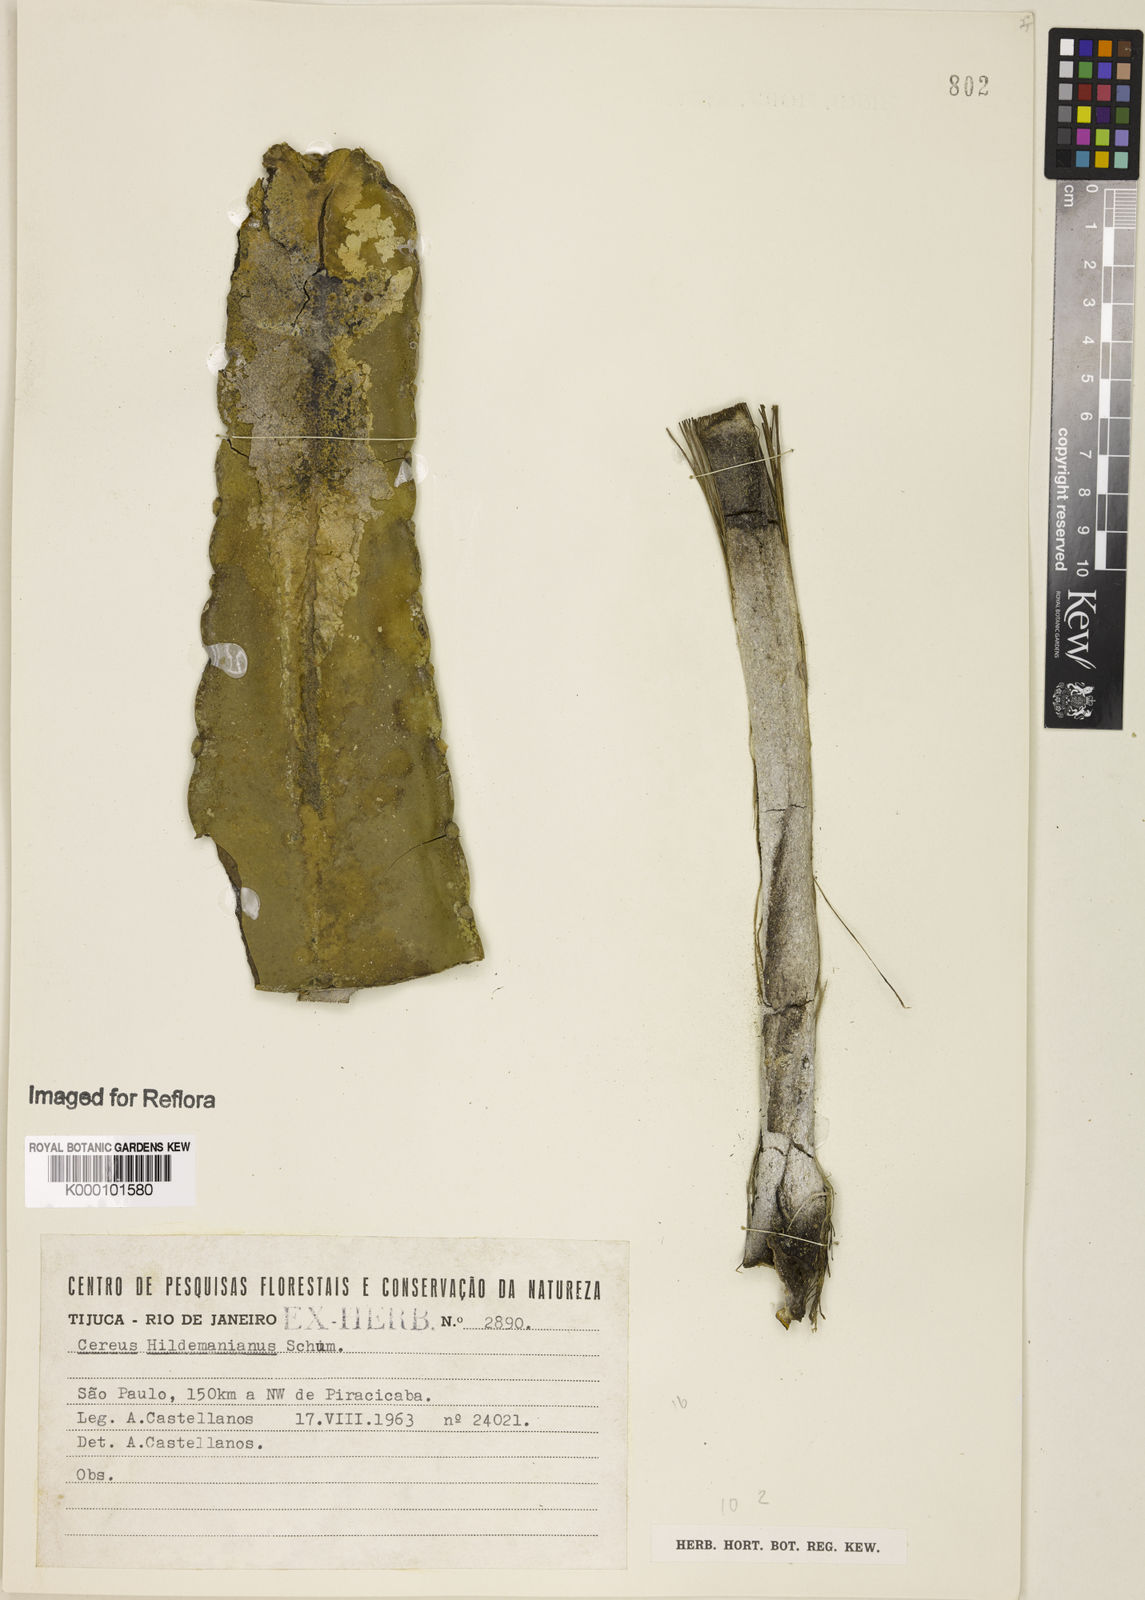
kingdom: Plantae
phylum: Tracheophyta
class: Magnoliopsida
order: Caryophyllales
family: Cactaceae
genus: Cereus
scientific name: Cereus hildmannianus
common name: Hedge cactus
